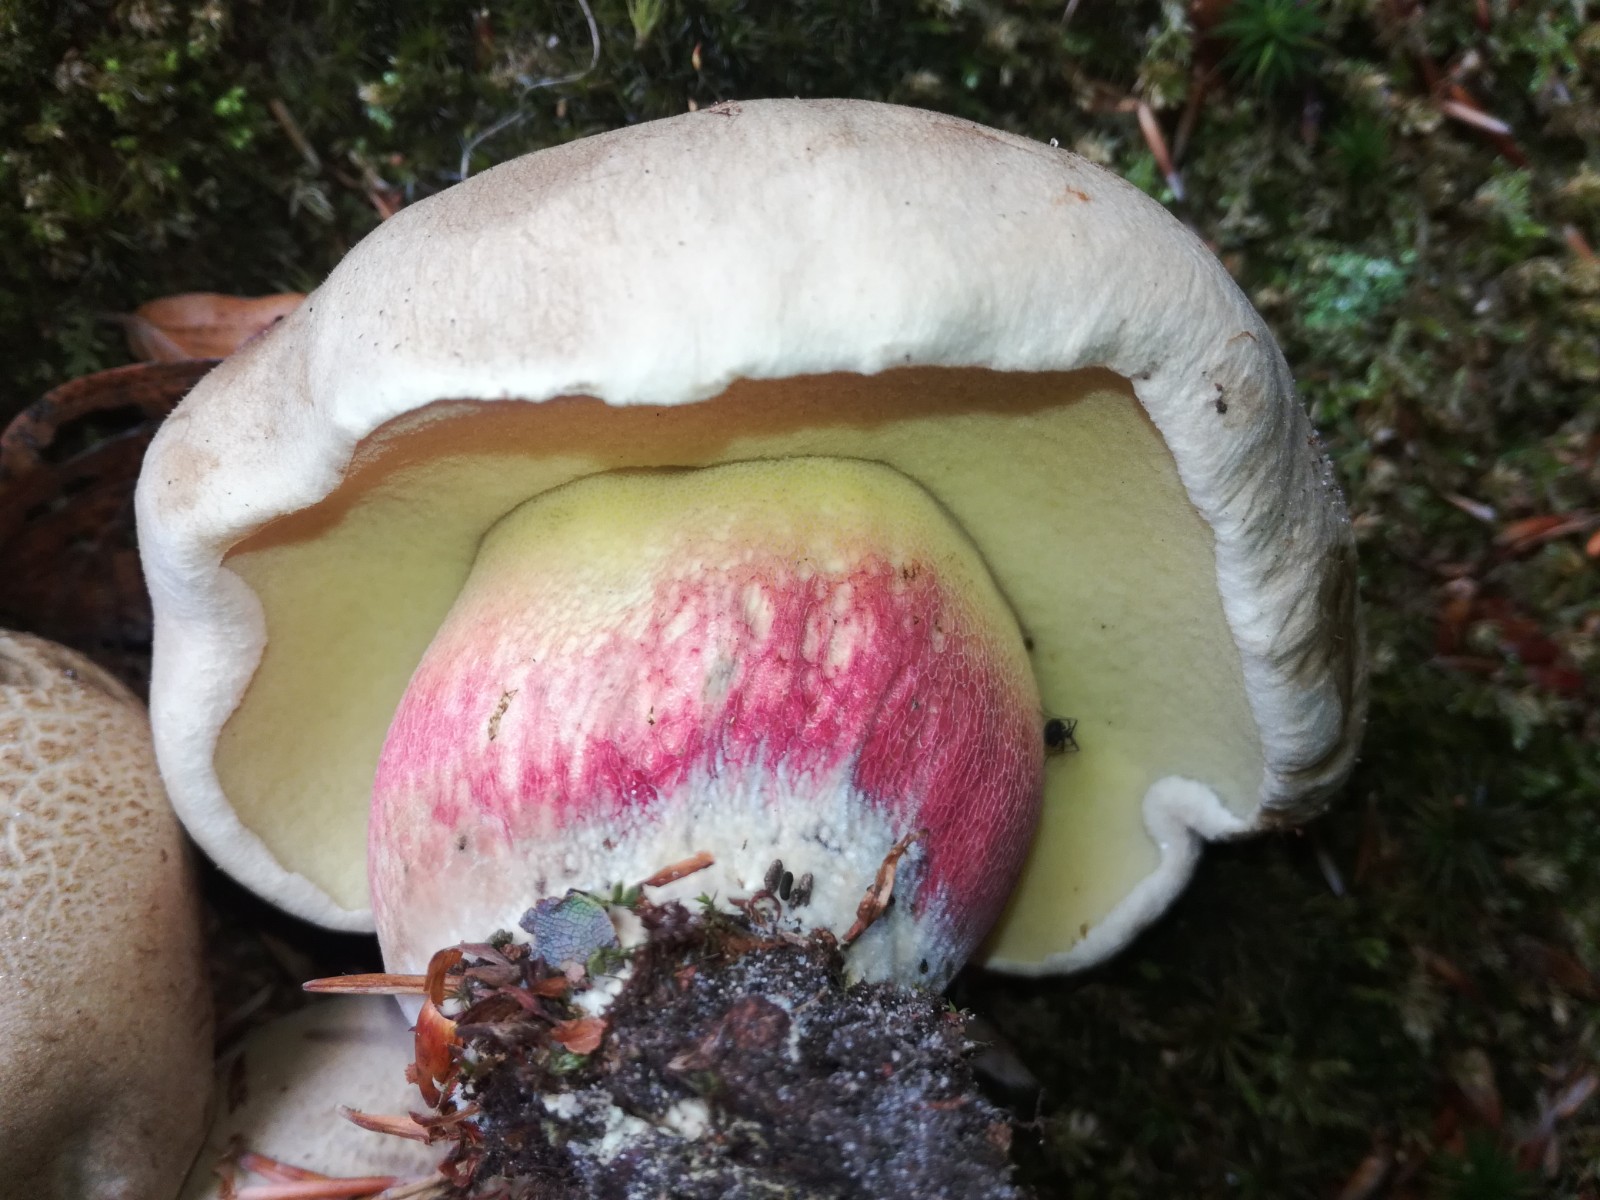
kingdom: Fungi
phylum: Basidiomycota
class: Agaricomycetes
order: Boletales
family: Boletaceae
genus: Caloboletus
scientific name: Caloboletus calopus
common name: skønfodet rørhat
